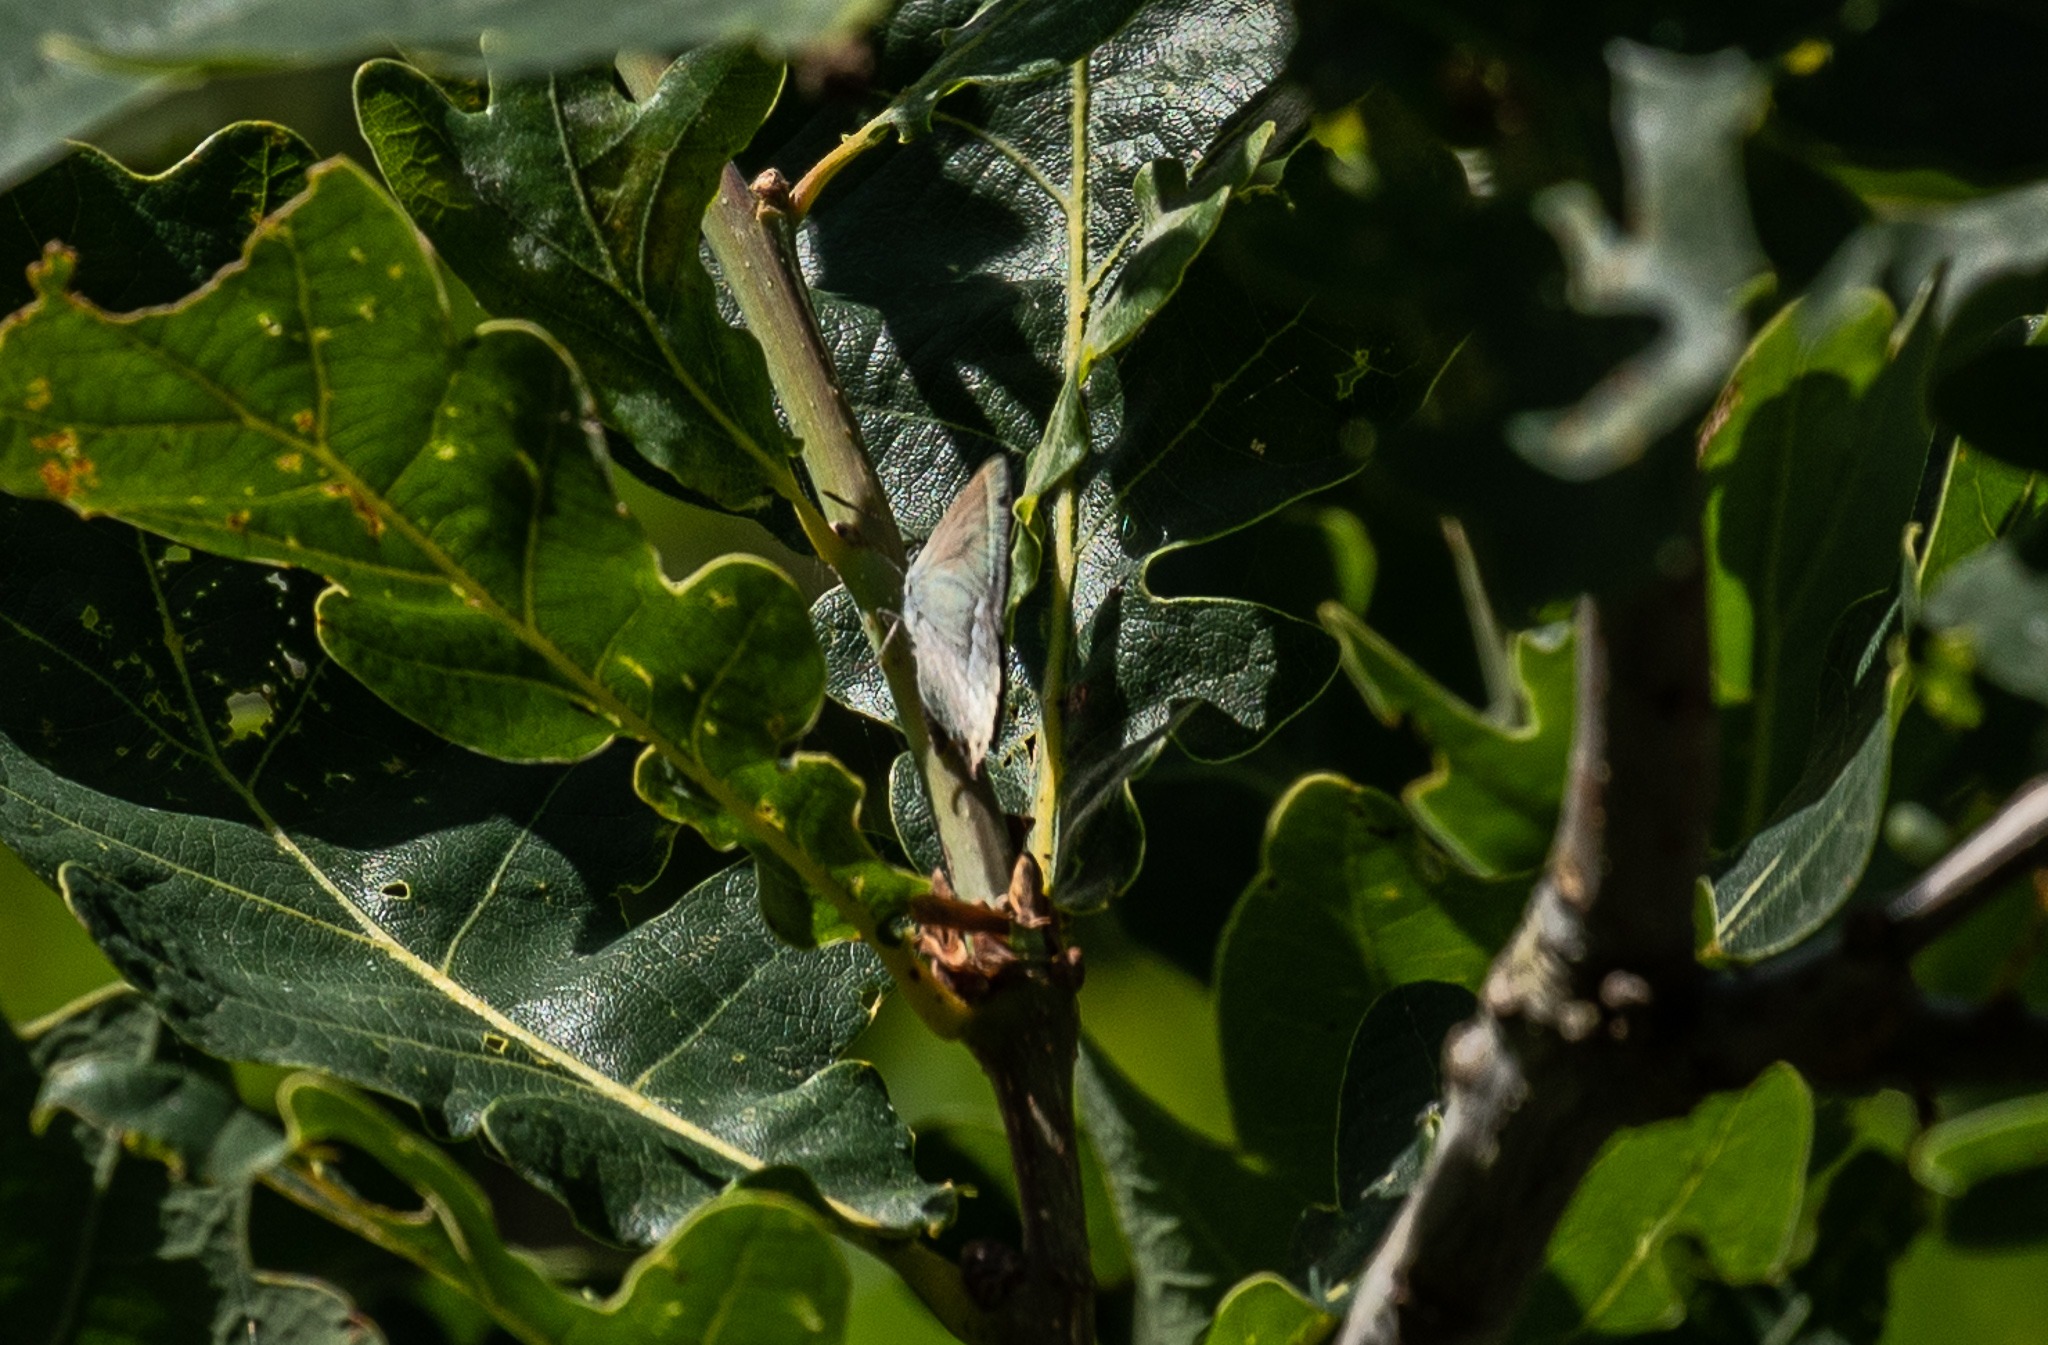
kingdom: Animalia
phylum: Arthropoda
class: Insecta
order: Lepidoptera
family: Lycaenidae
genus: Quercusia
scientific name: Quercusia quercus
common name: Blåhale
